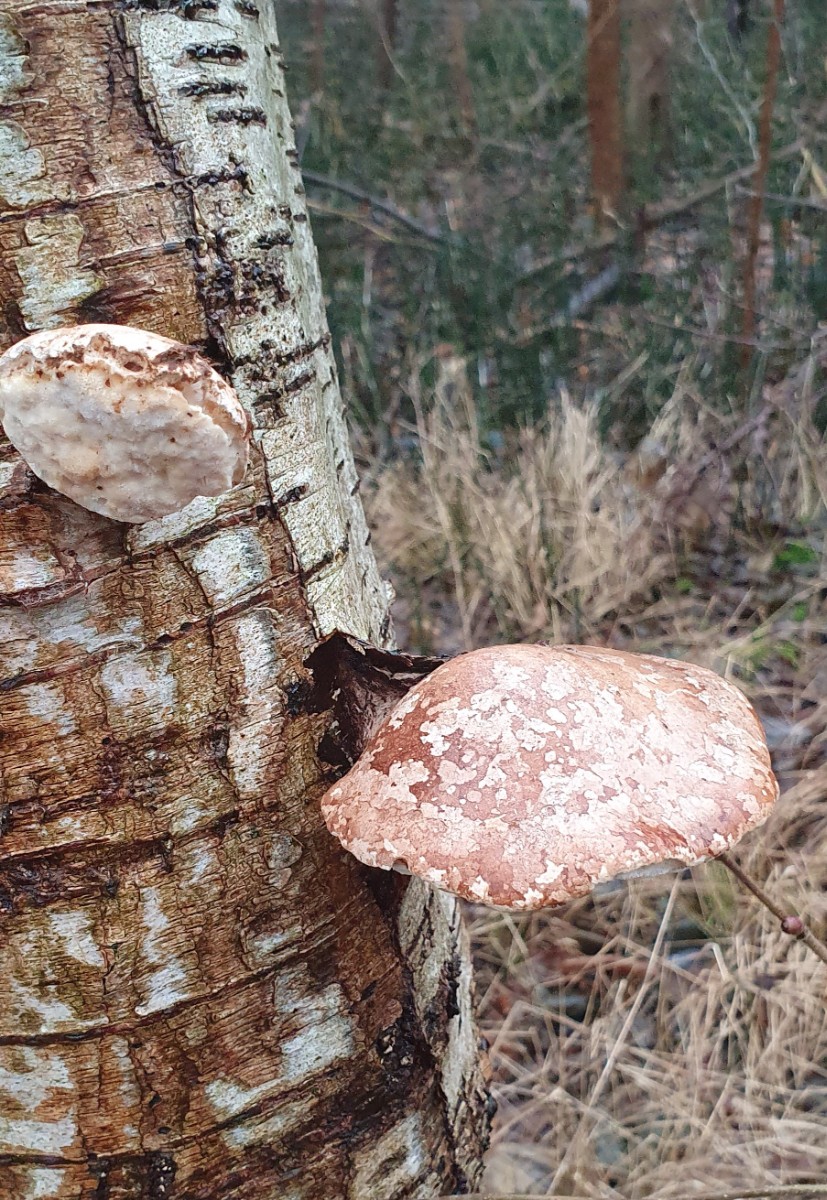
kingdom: Fungi
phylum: Basidiomycota
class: Agaricomycetes
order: Polyporales
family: Fomitopsidaceae
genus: Fomitopsis
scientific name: Fomitopsis betulina
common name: birkeporesvamp
